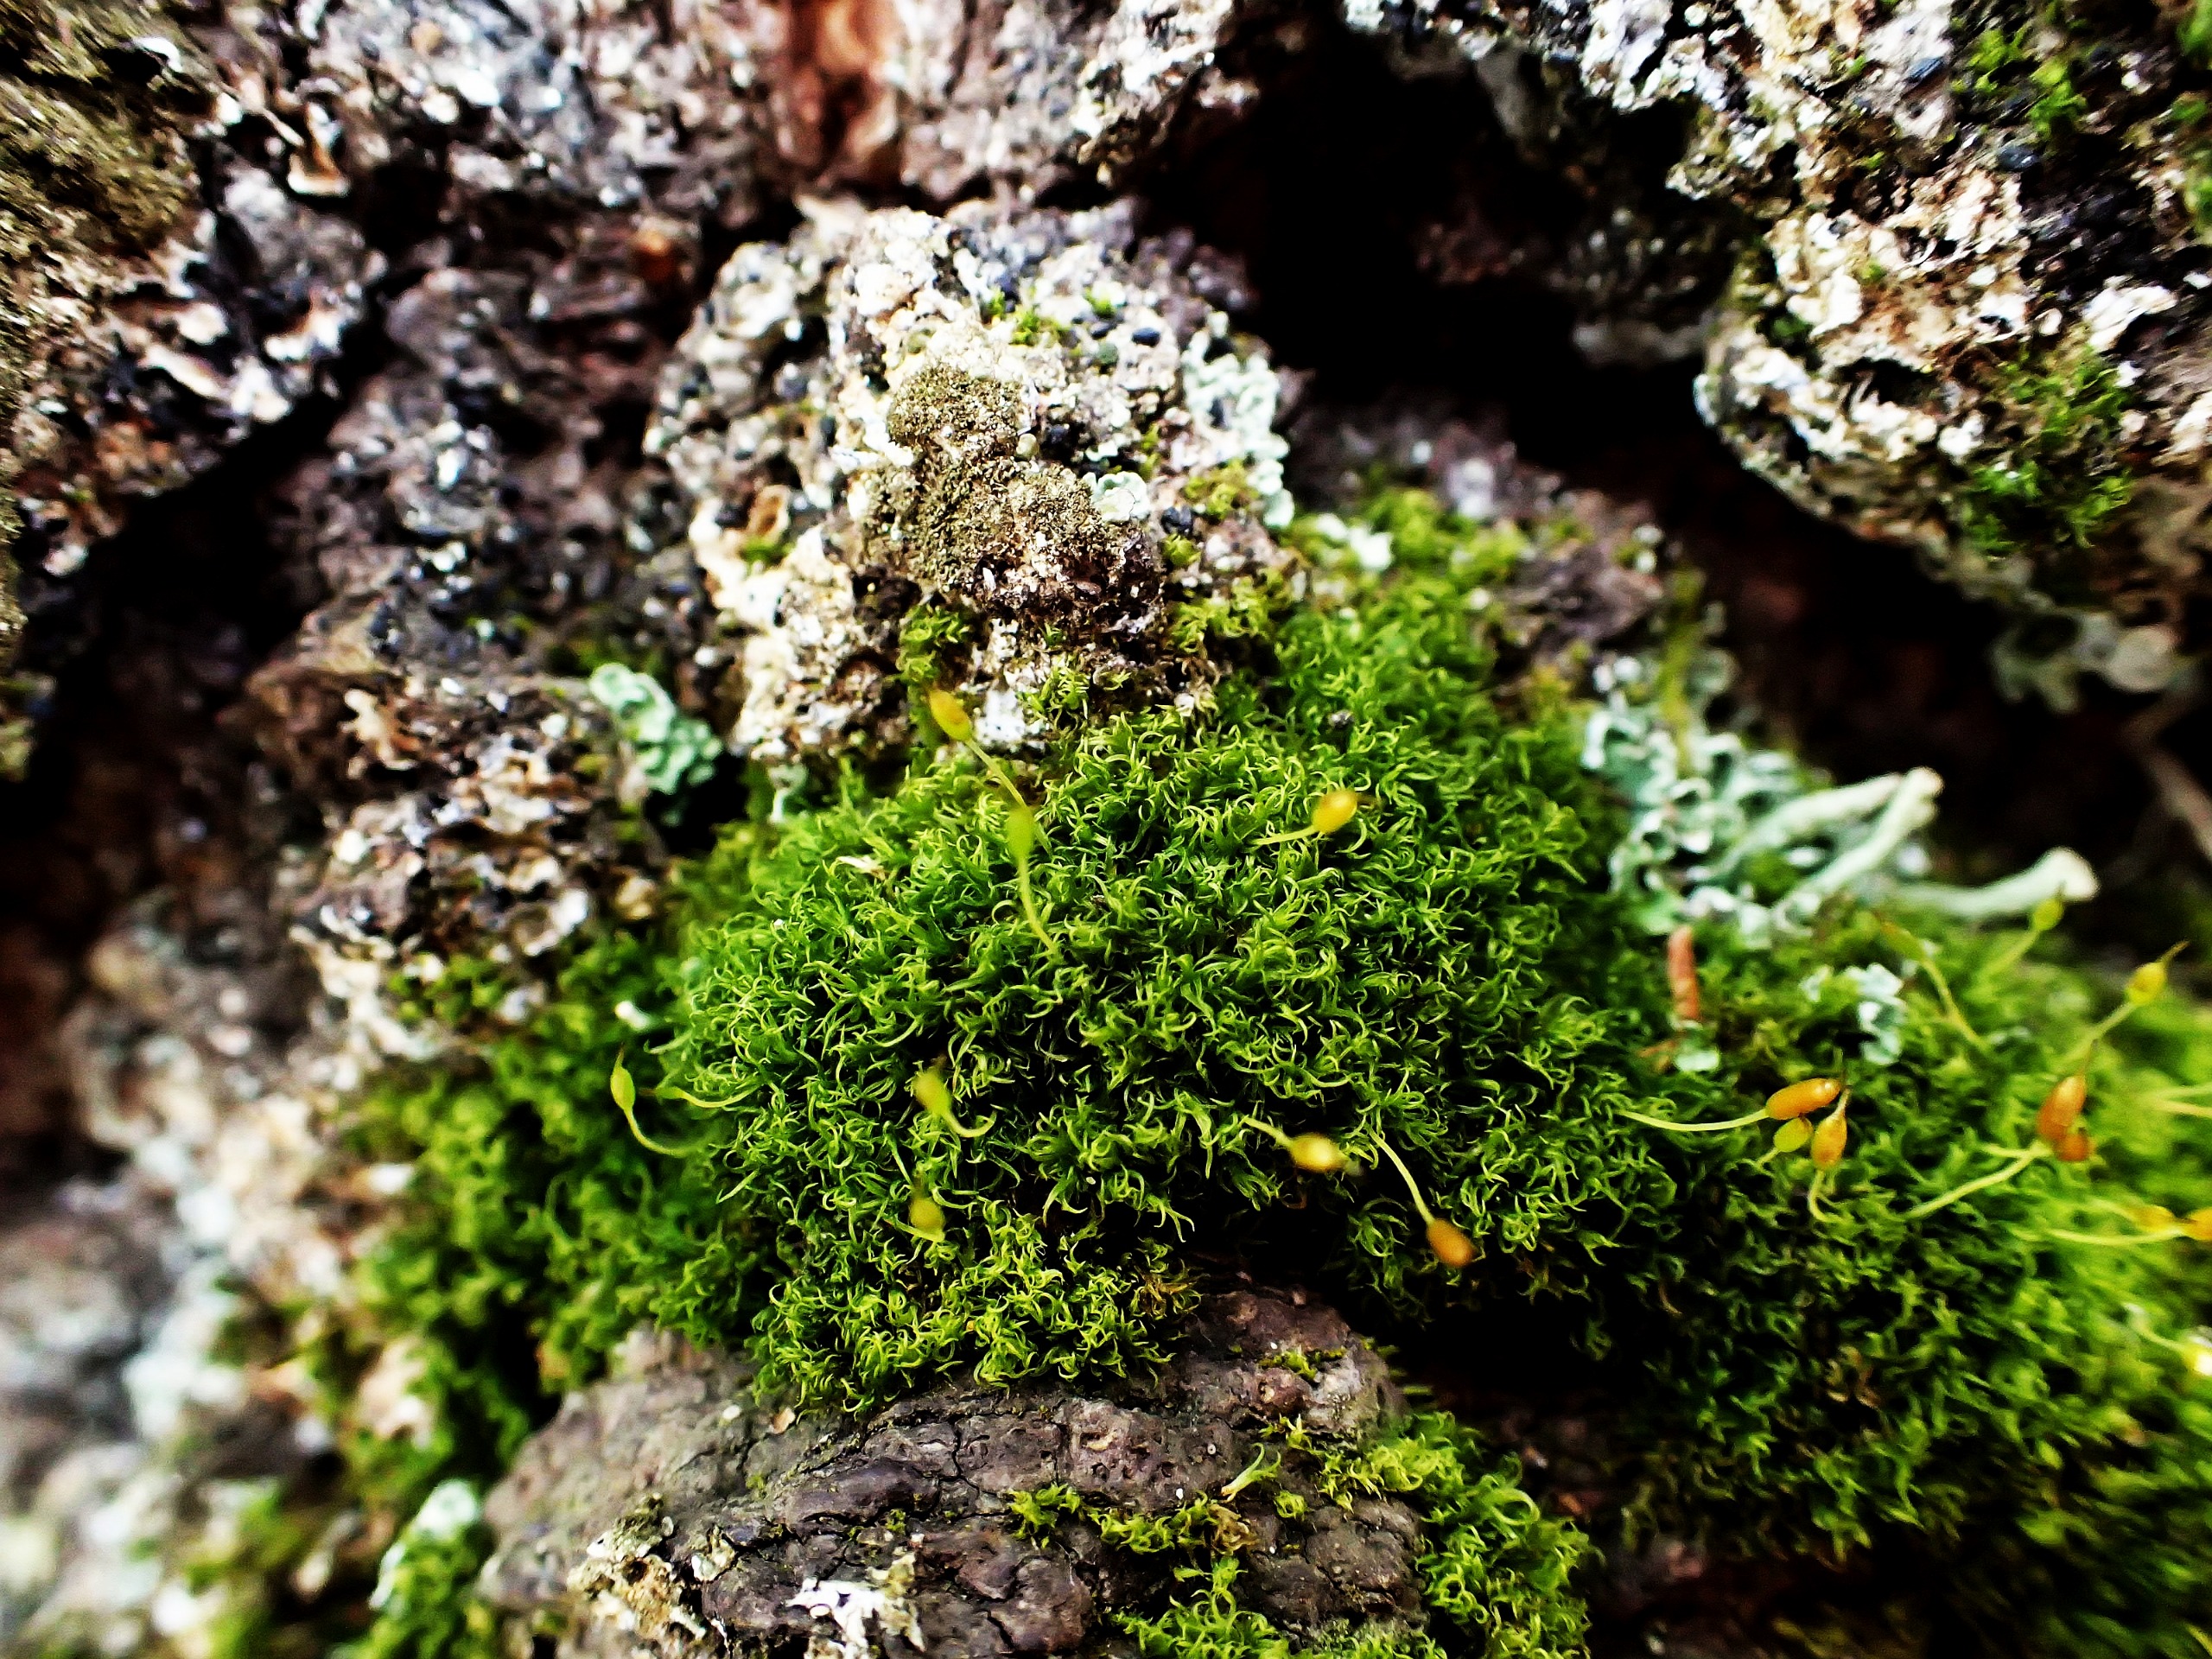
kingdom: Plantae
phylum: Bryophyta
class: Bryopsida
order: Dicranales
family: Rhabdoweisiaceae
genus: Dicranoweisia
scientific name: Dicranoweisia cirrata
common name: Almindelig krøltuemos
